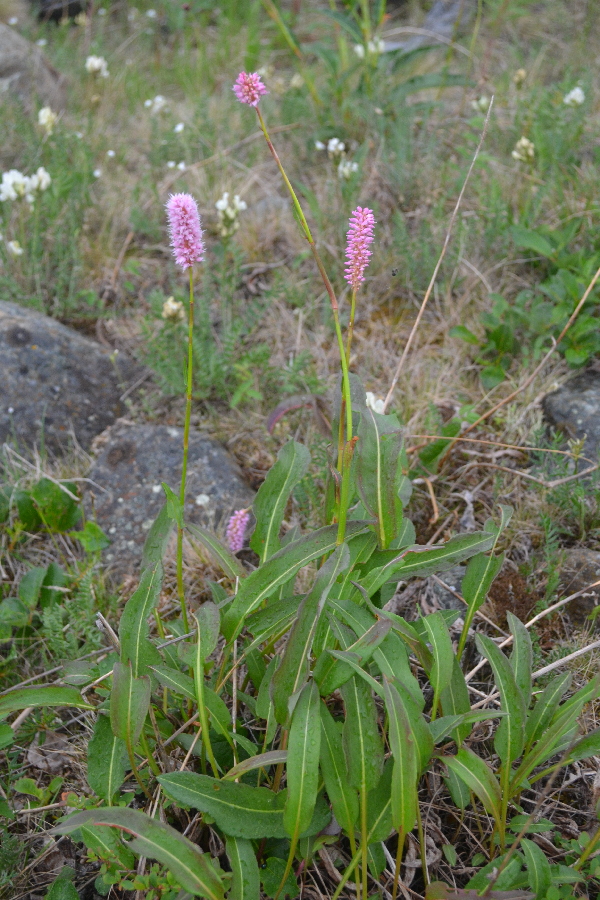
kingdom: Plantae
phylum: Tracheophyta
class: Magnoliopsida
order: Caryophyllales
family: Polygonaceae
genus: Bistorta
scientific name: Bistorta officinalis
